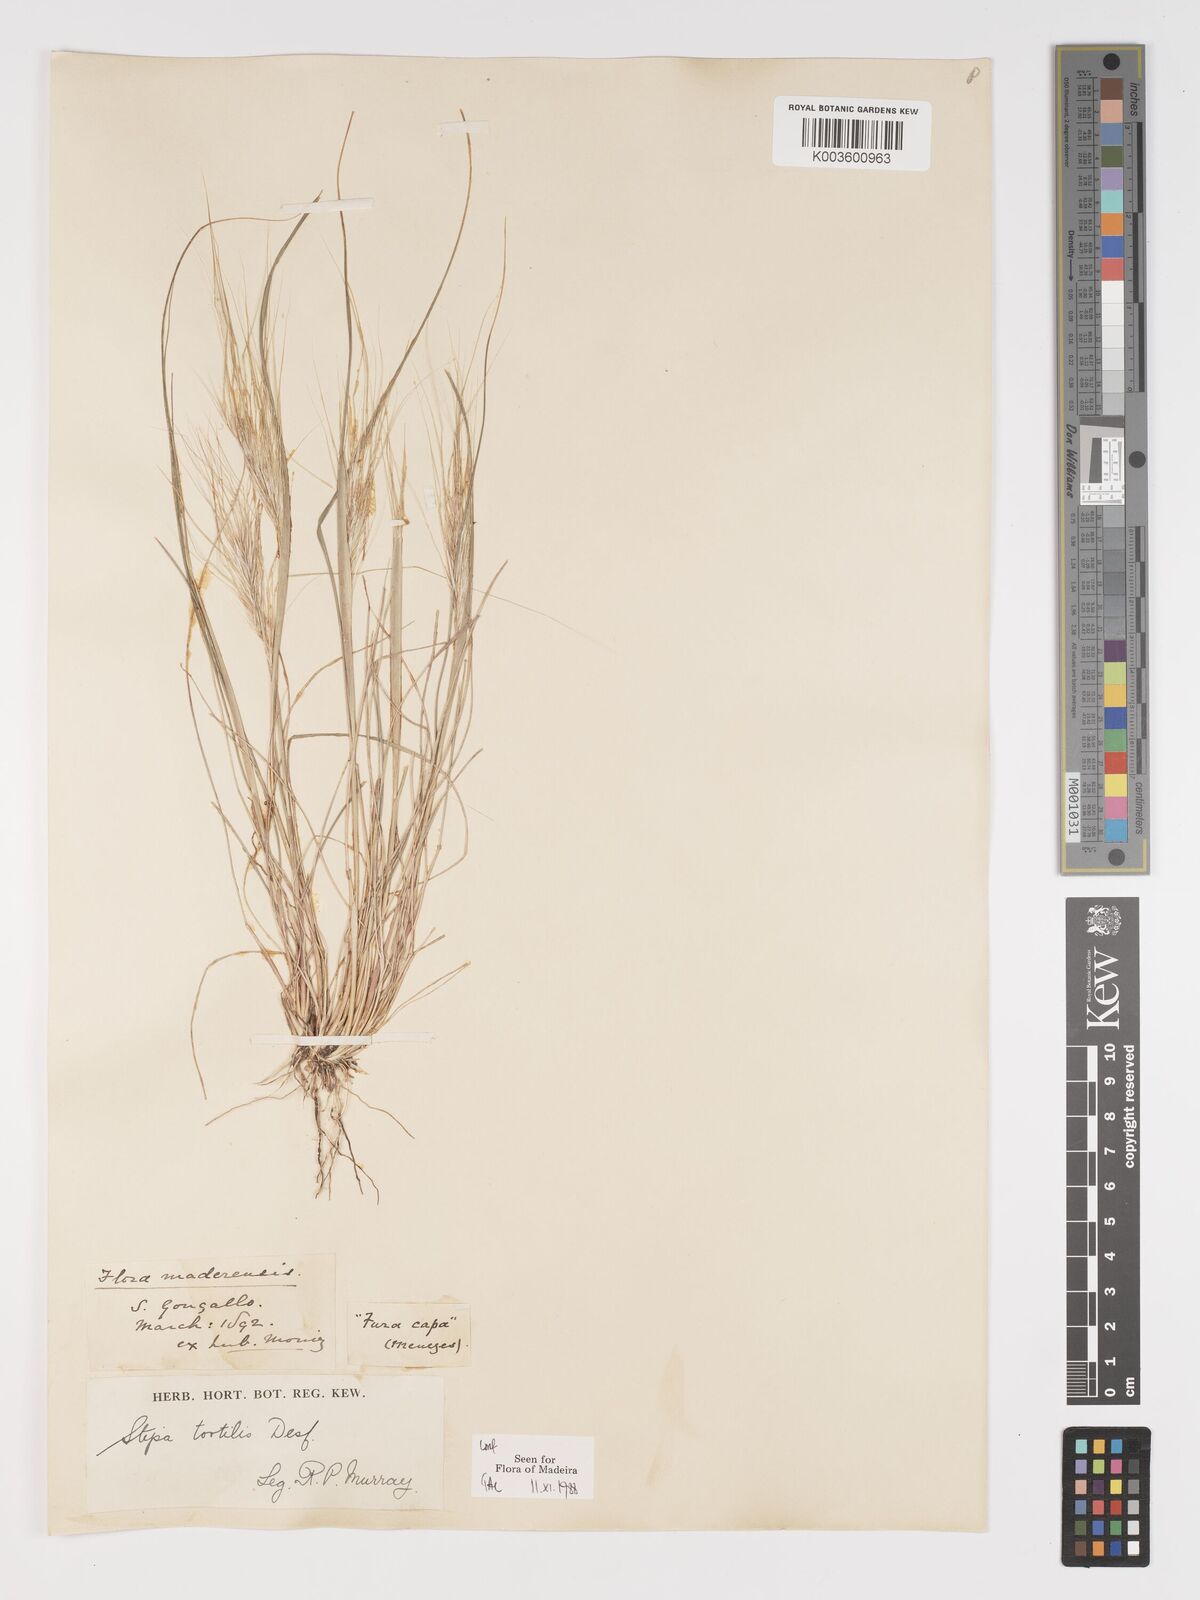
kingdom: Plantae
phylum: Tracheophyta
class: Liliopsida
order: Poales
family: Poaceae
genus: Stipellula
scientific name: Stipellula capensis
